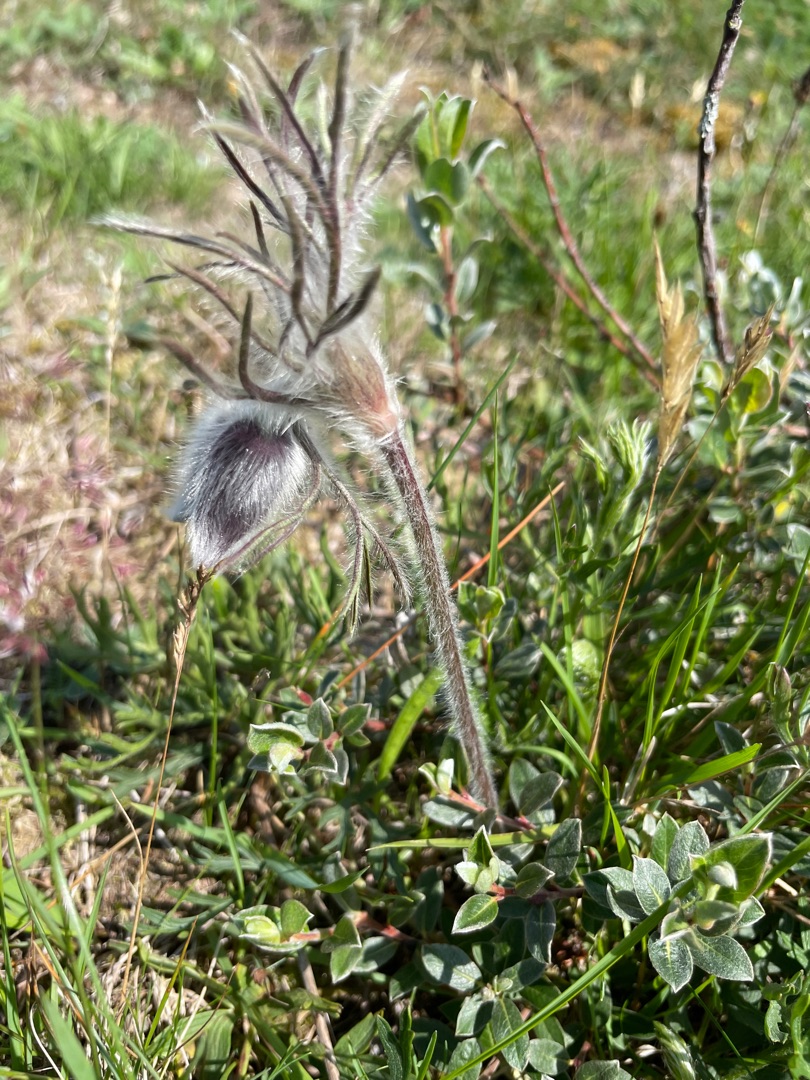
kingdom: Plantae
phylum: Tracheophyta
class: Magnoliopsida
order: Ranunculales
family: Ranunculaceae
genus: Pulsatilla
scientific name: Pulsatilla pratensis
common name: Nikkende kobjælde
